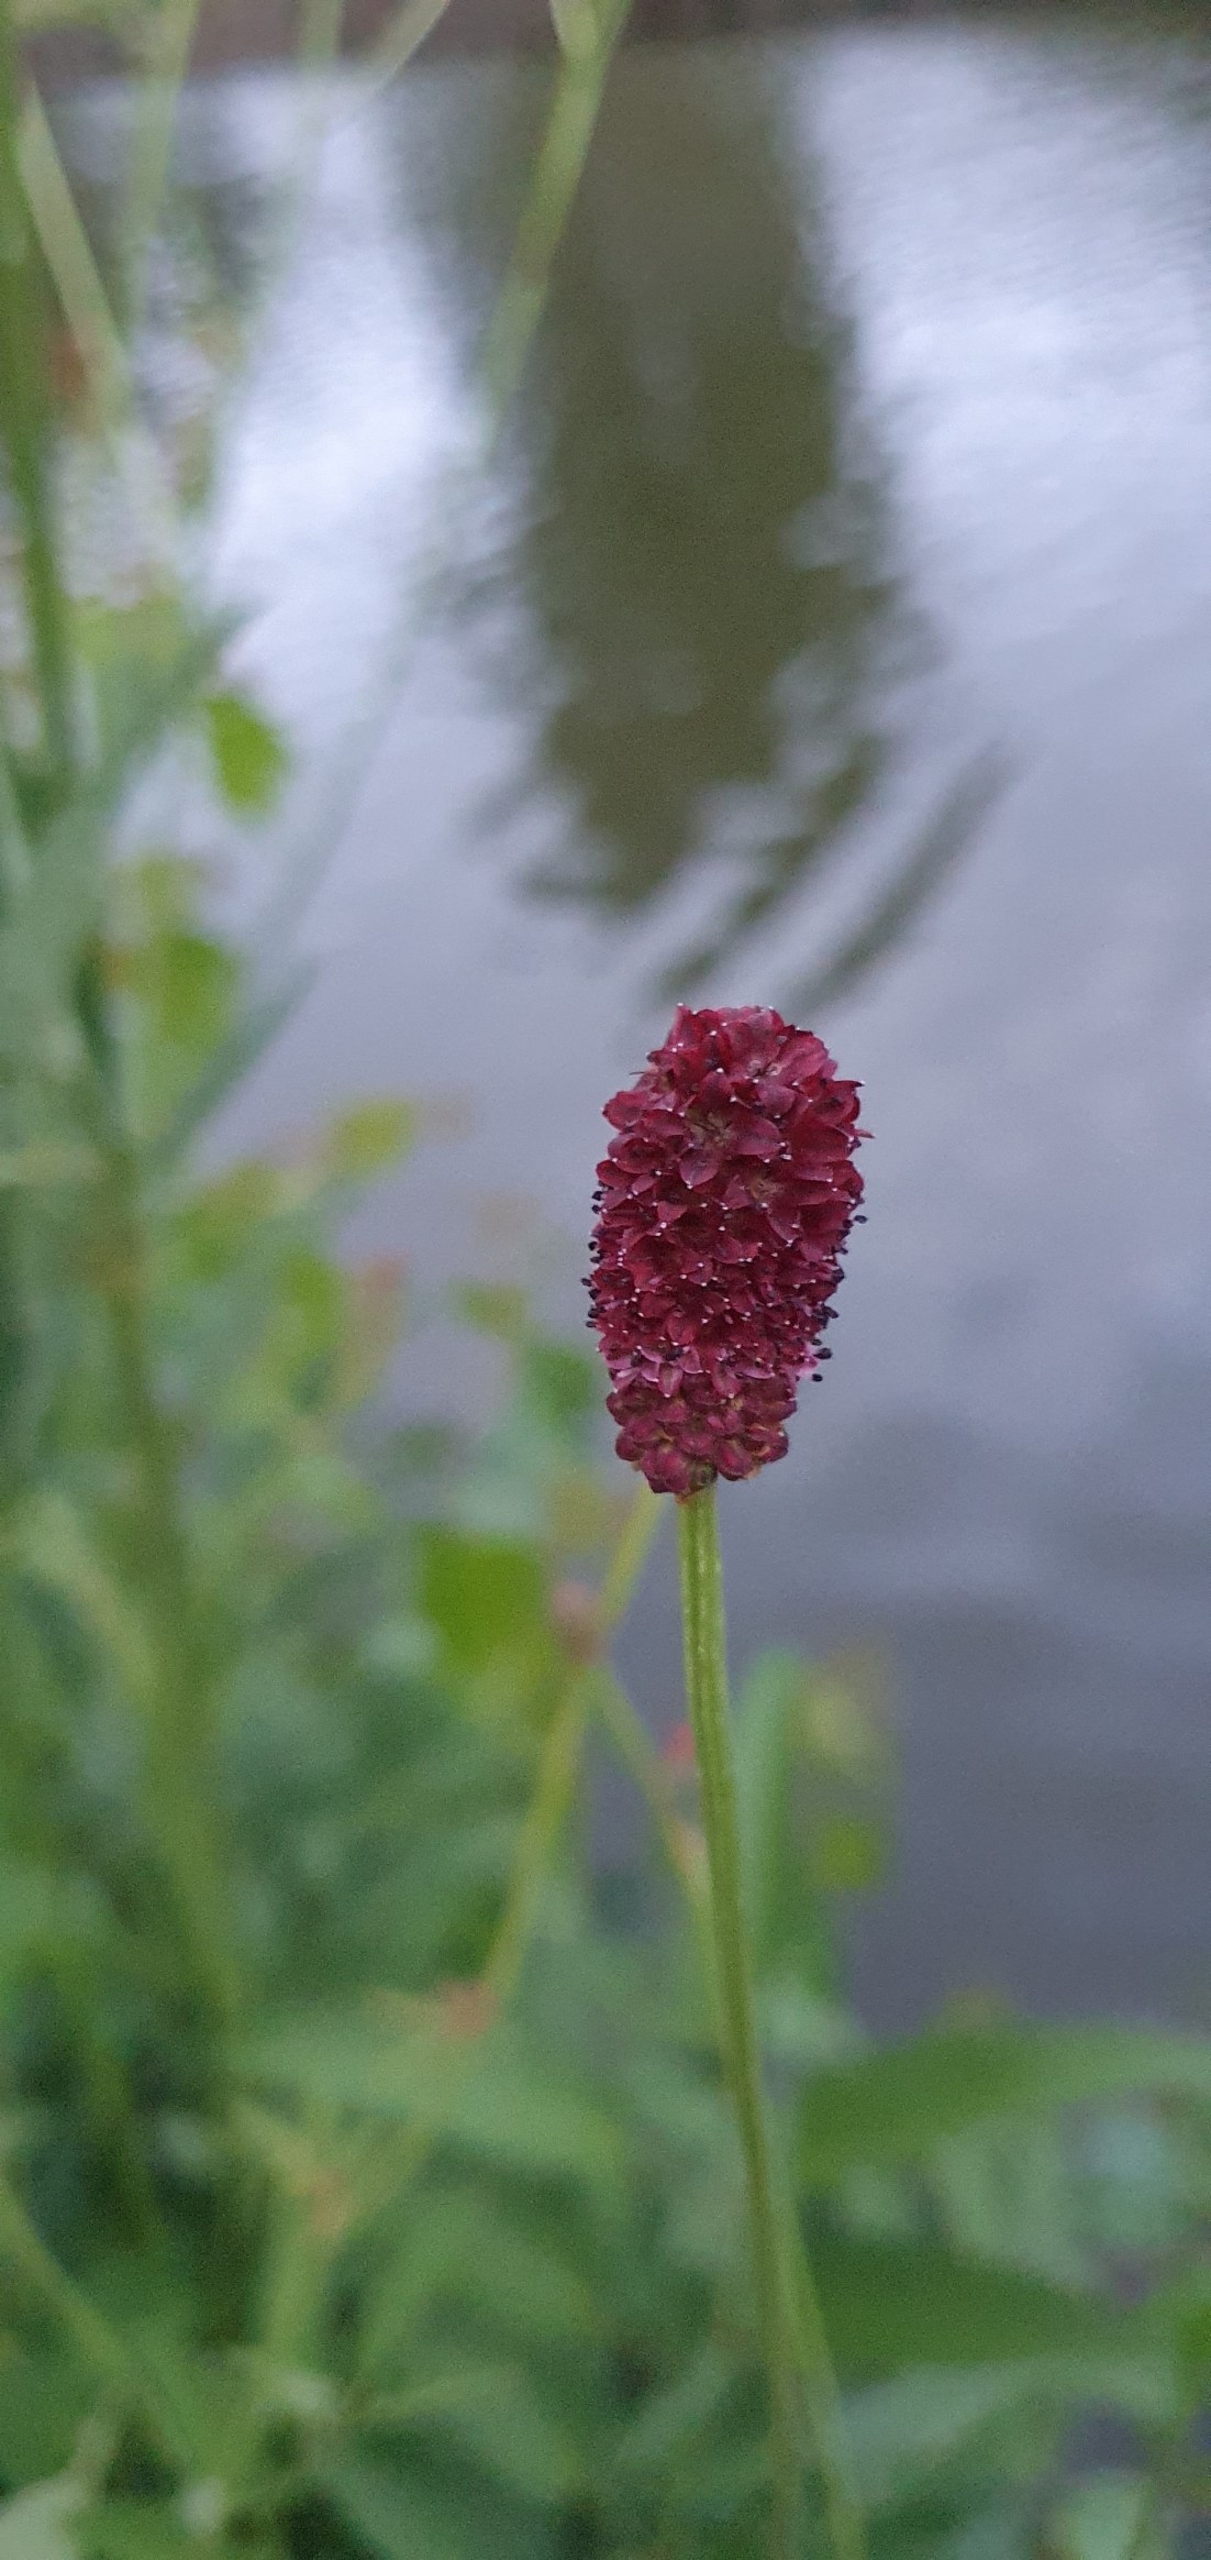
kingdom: Plantae
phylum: Tracheophyta
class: Magnoliopsida
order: Rosales
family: Rosaceae
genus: Sanguisorba
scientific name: Sanguisorba officinalis
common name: Læge-kvæsurt
